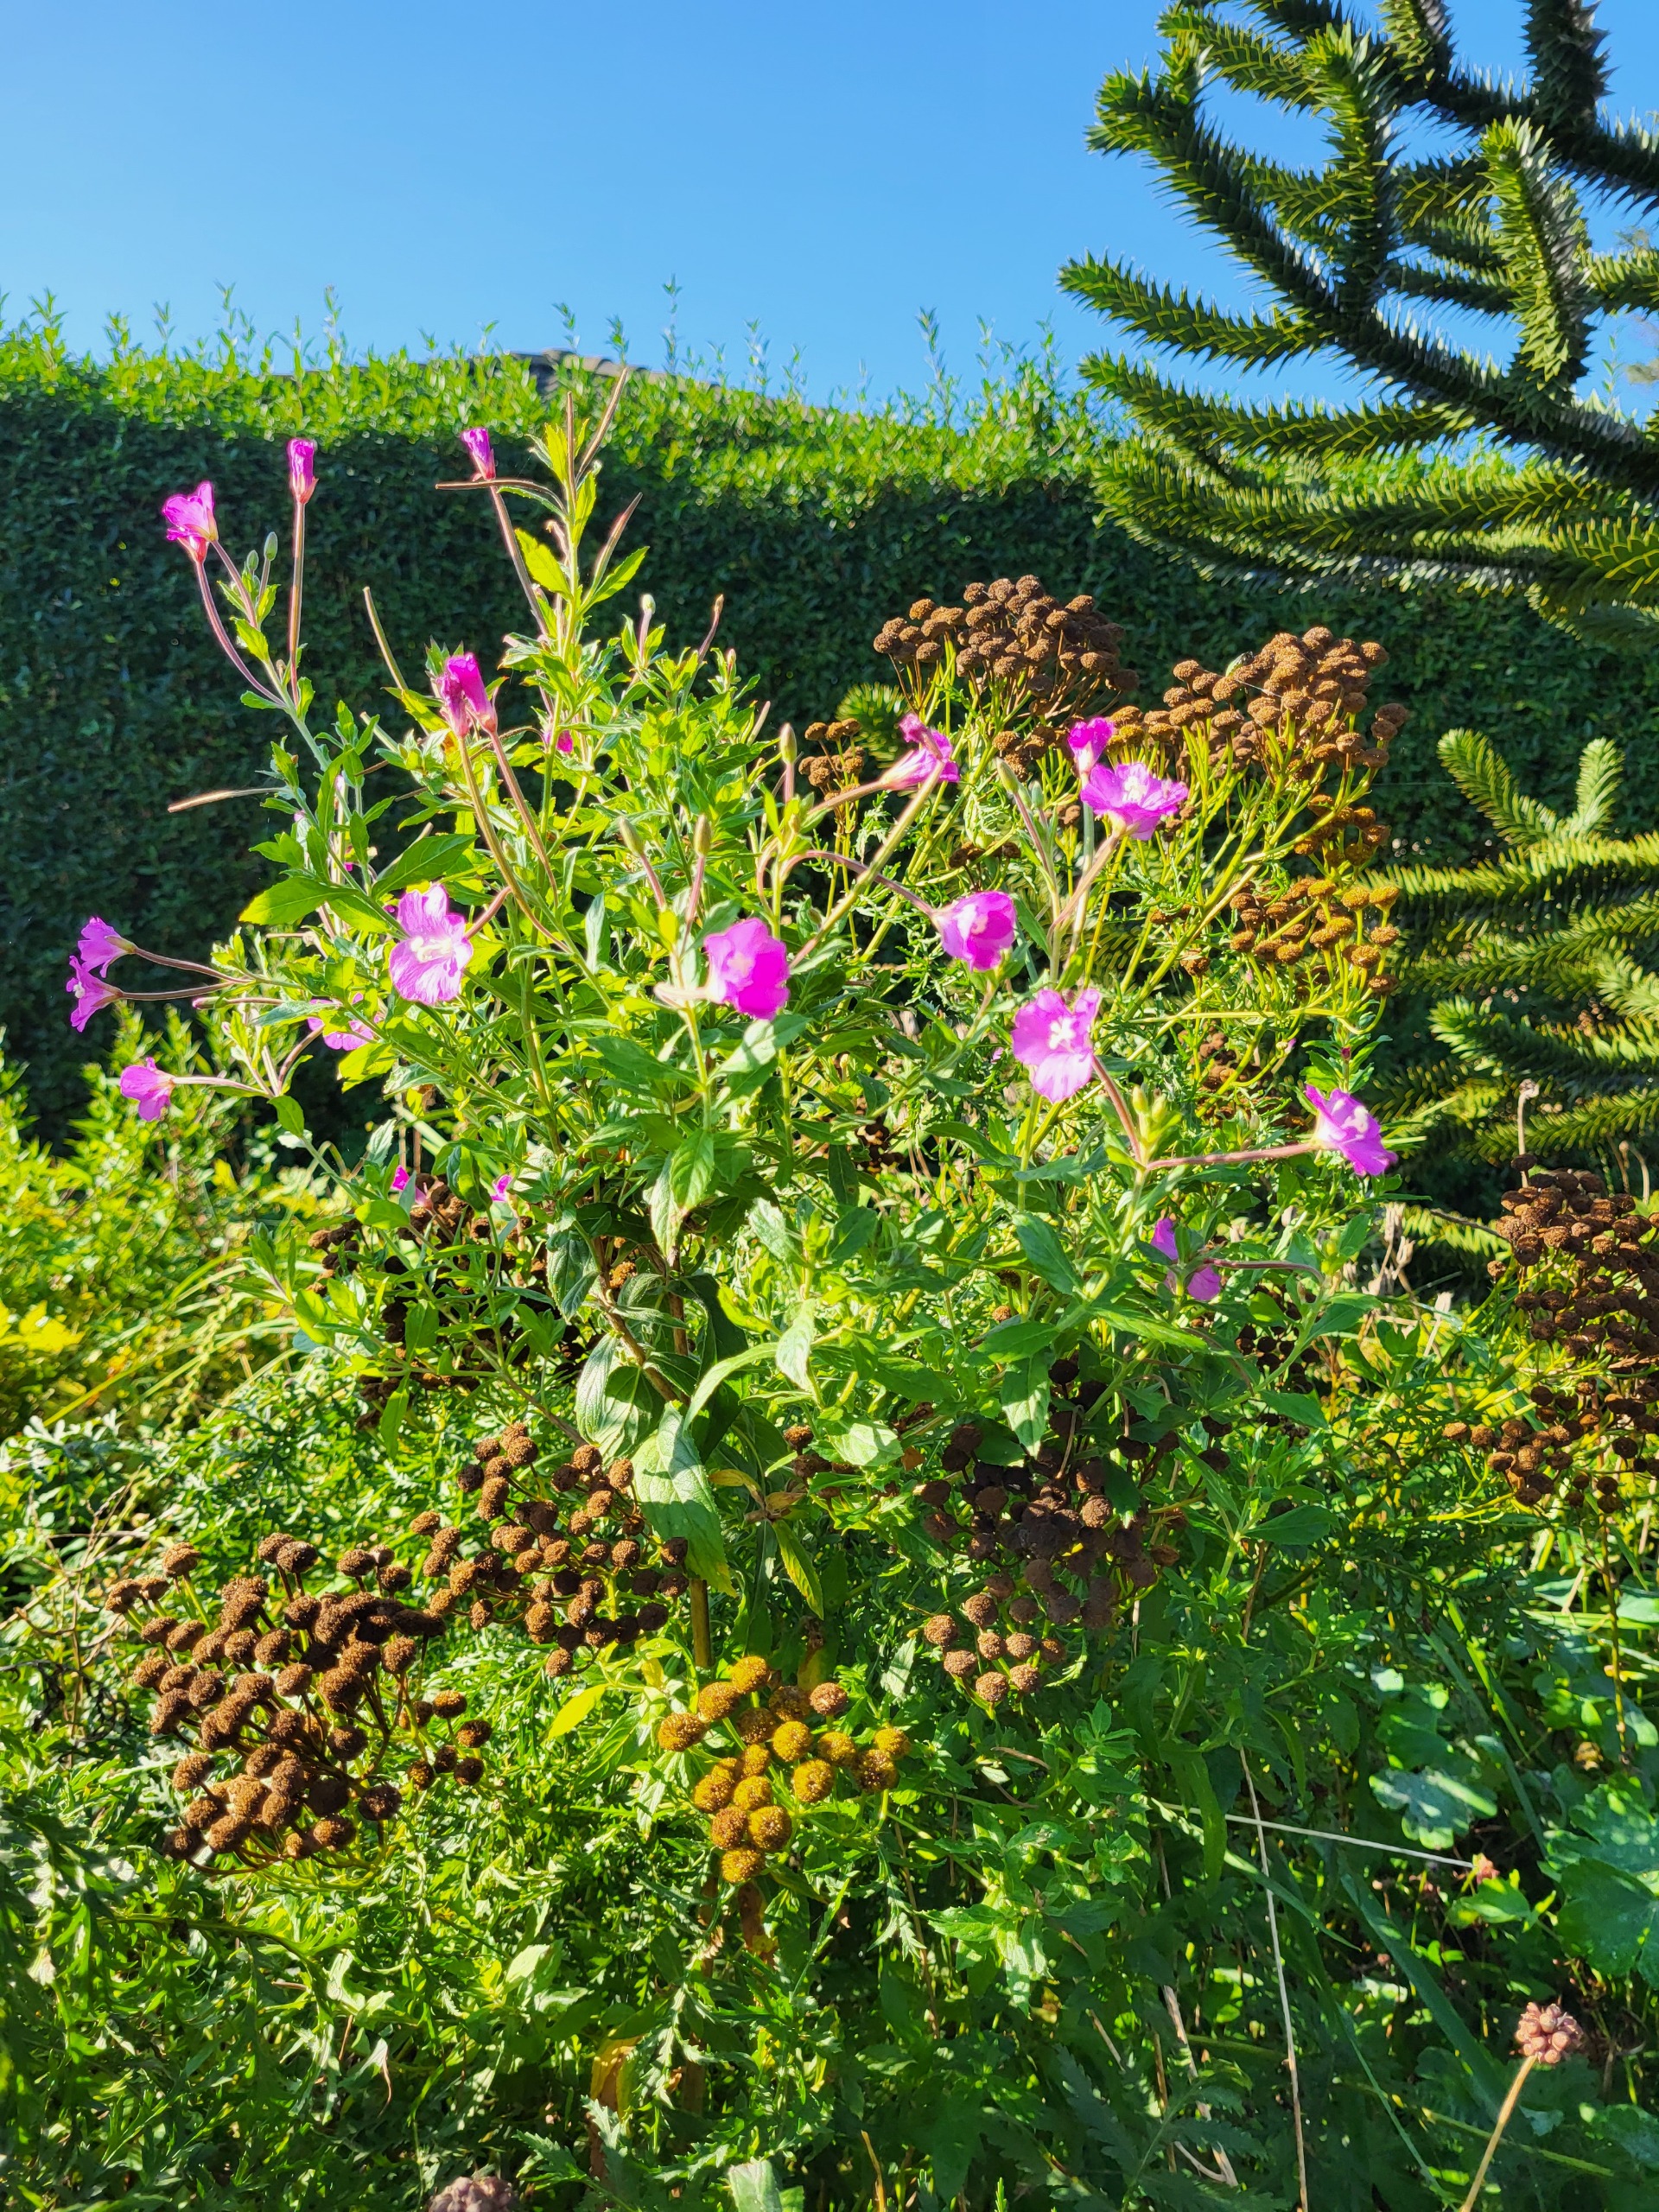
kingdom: Plantae
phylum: Tracheophyta
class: Magnoliopsida
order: Myrtales
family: Onagraceae
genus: Epilobium
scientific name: Epilobium hirsutum
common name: Lådden dueurt
